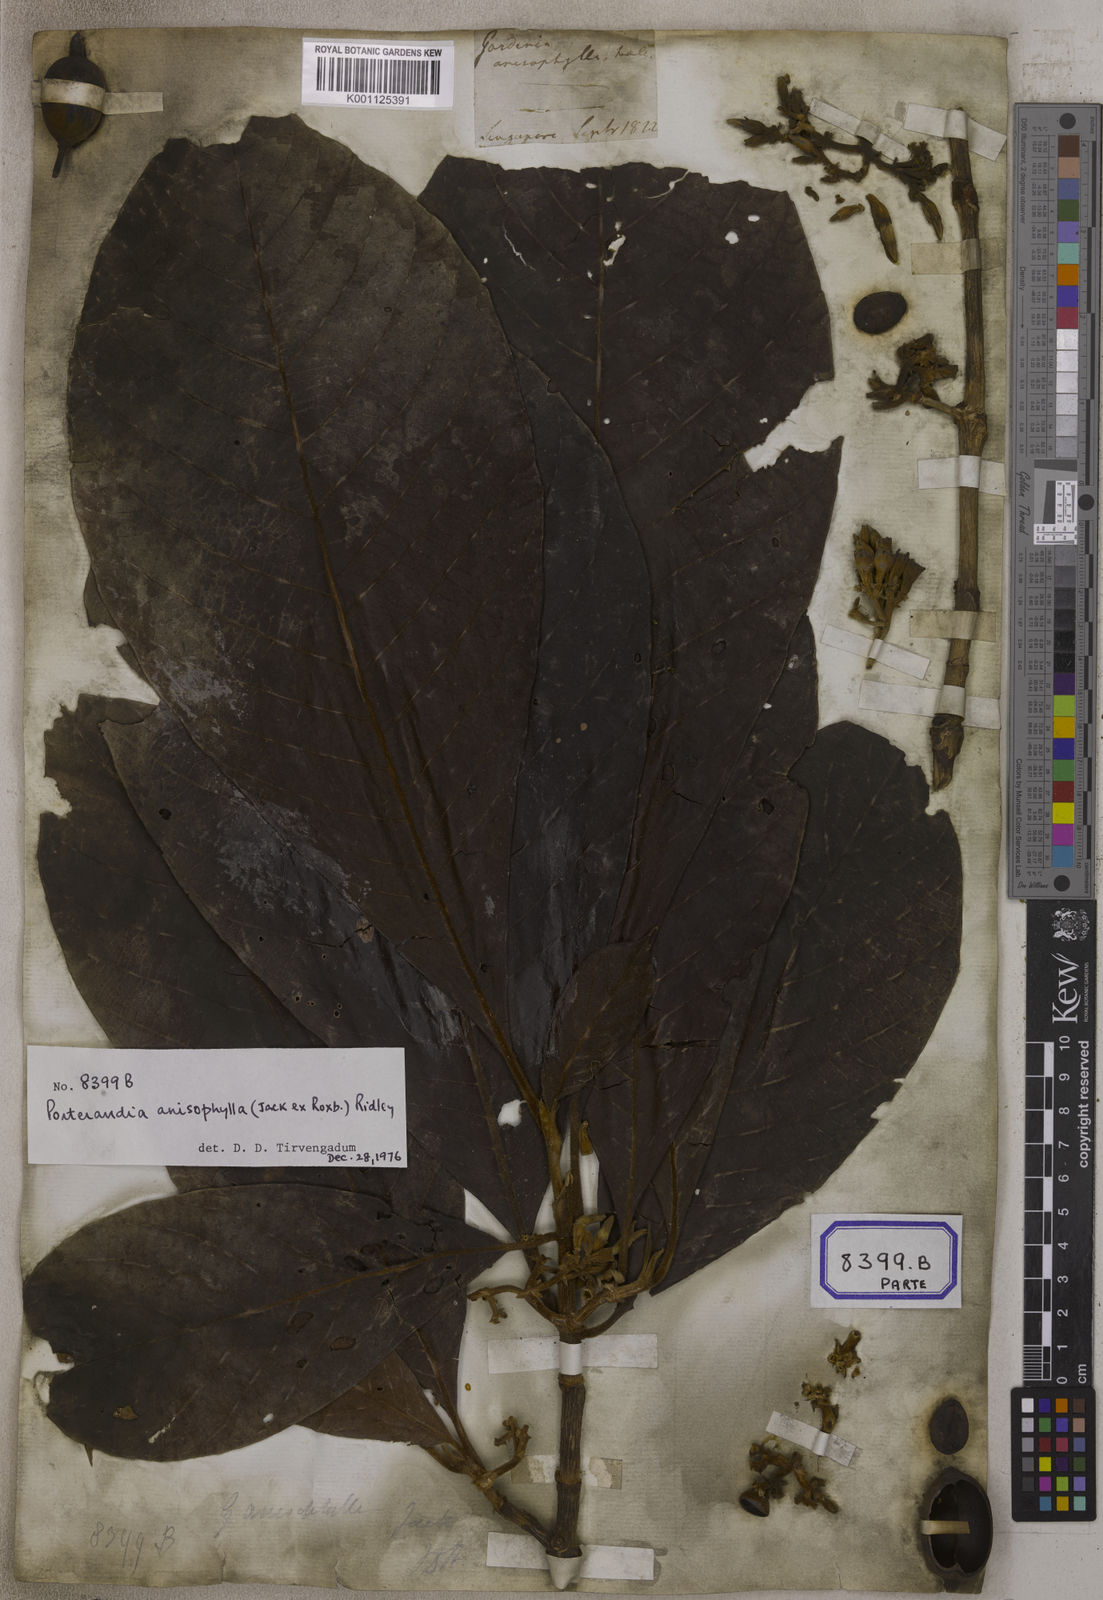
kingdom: Plantae
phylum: Tracheophyta
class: Magnoliopsida
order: Gentianales
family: Rubiaceae
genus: Gardenia
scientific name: Gardenia
